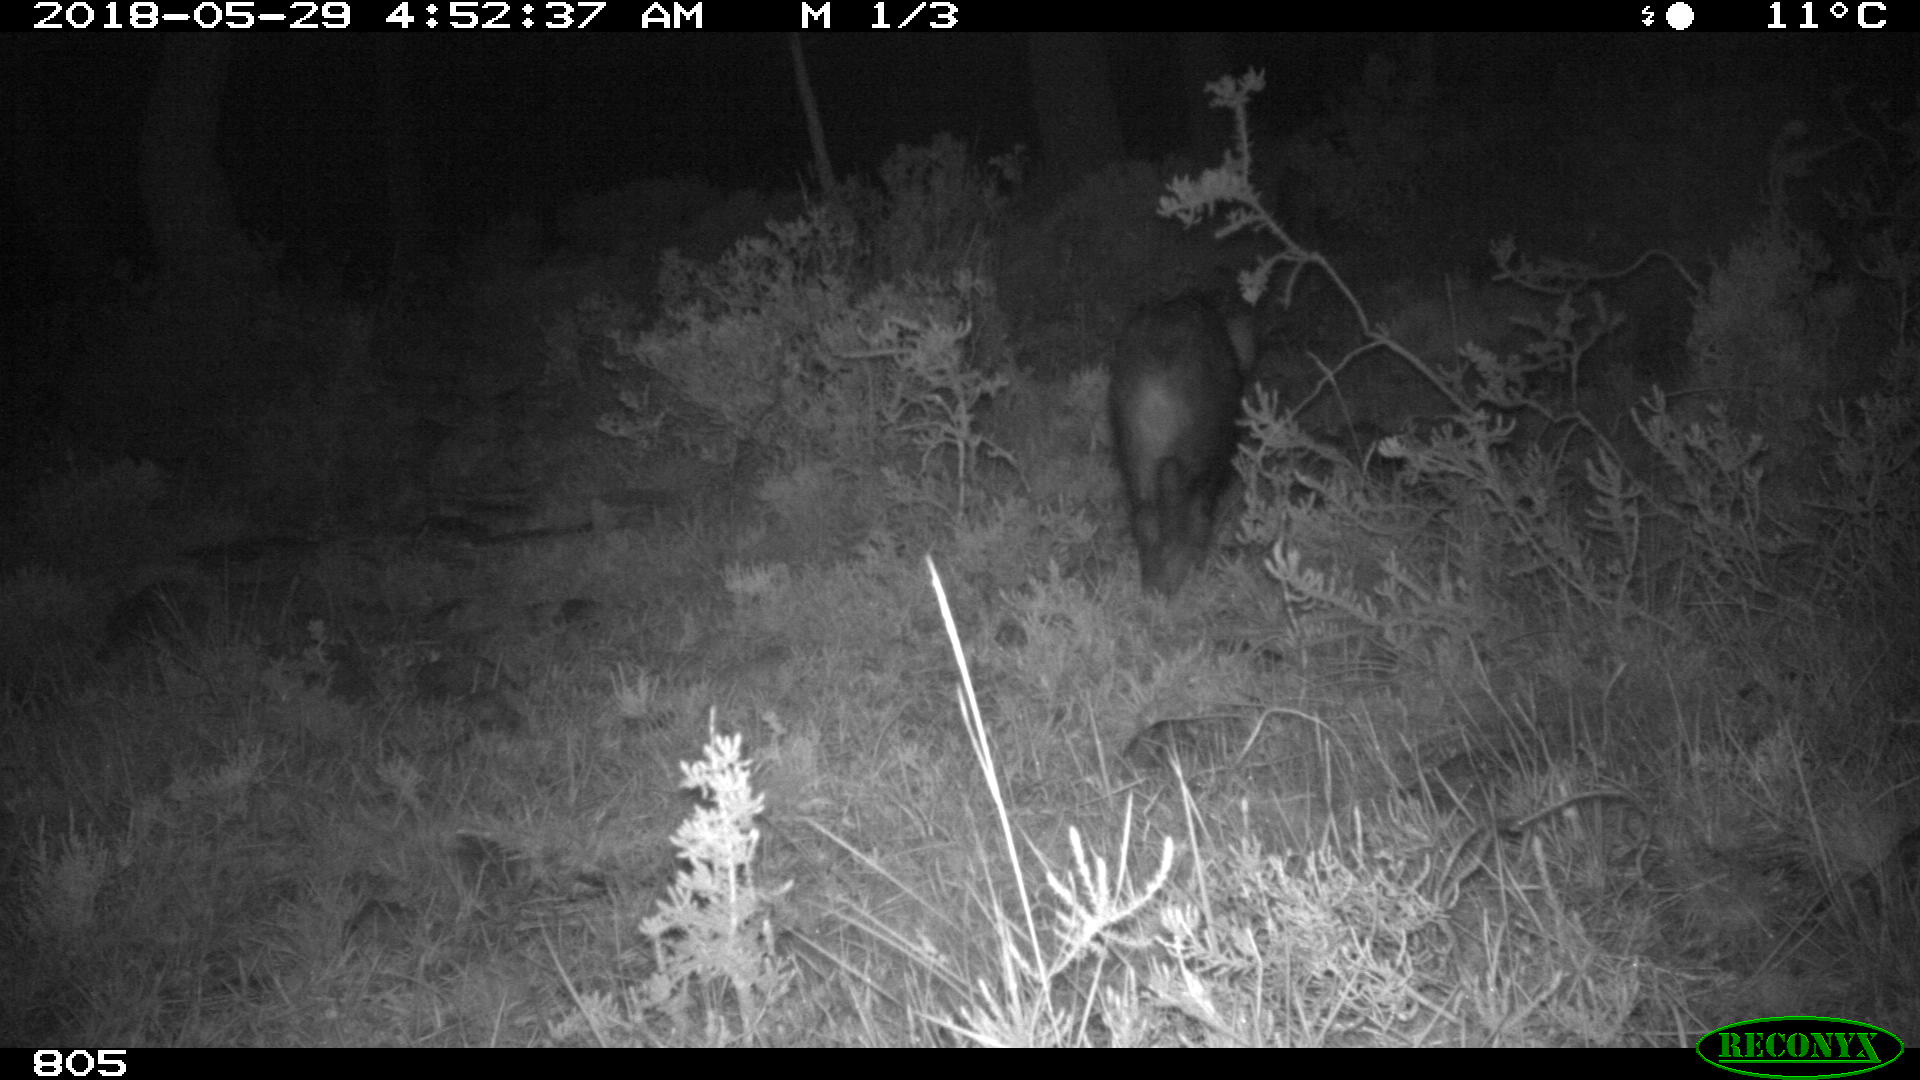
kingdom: Animalia
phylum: Chordata
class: Mammalia
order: Artiodactyla
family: Suidae
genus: Sus
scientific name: Sus scrofa
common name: Wild boar
